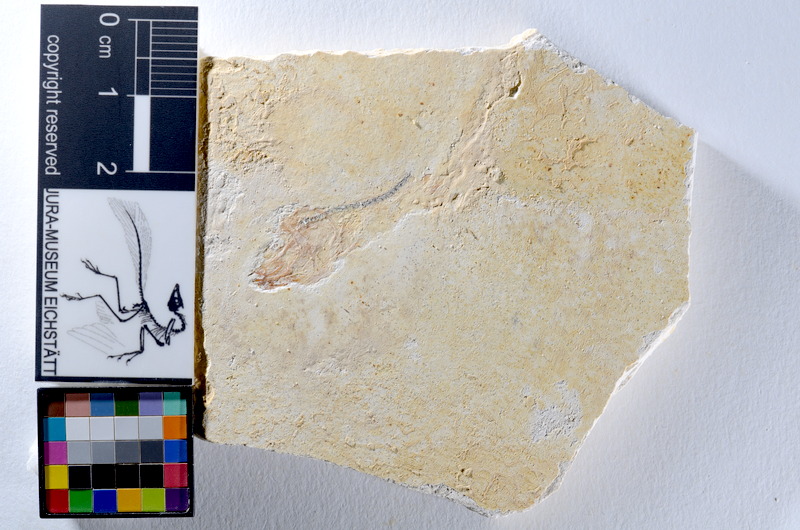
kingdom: Animalia
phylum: Chordata
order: Salmoniformes
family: Orthogonikleithridae
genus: Orthogonikleithrus
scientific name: Orthogonikleithrus hoelli
